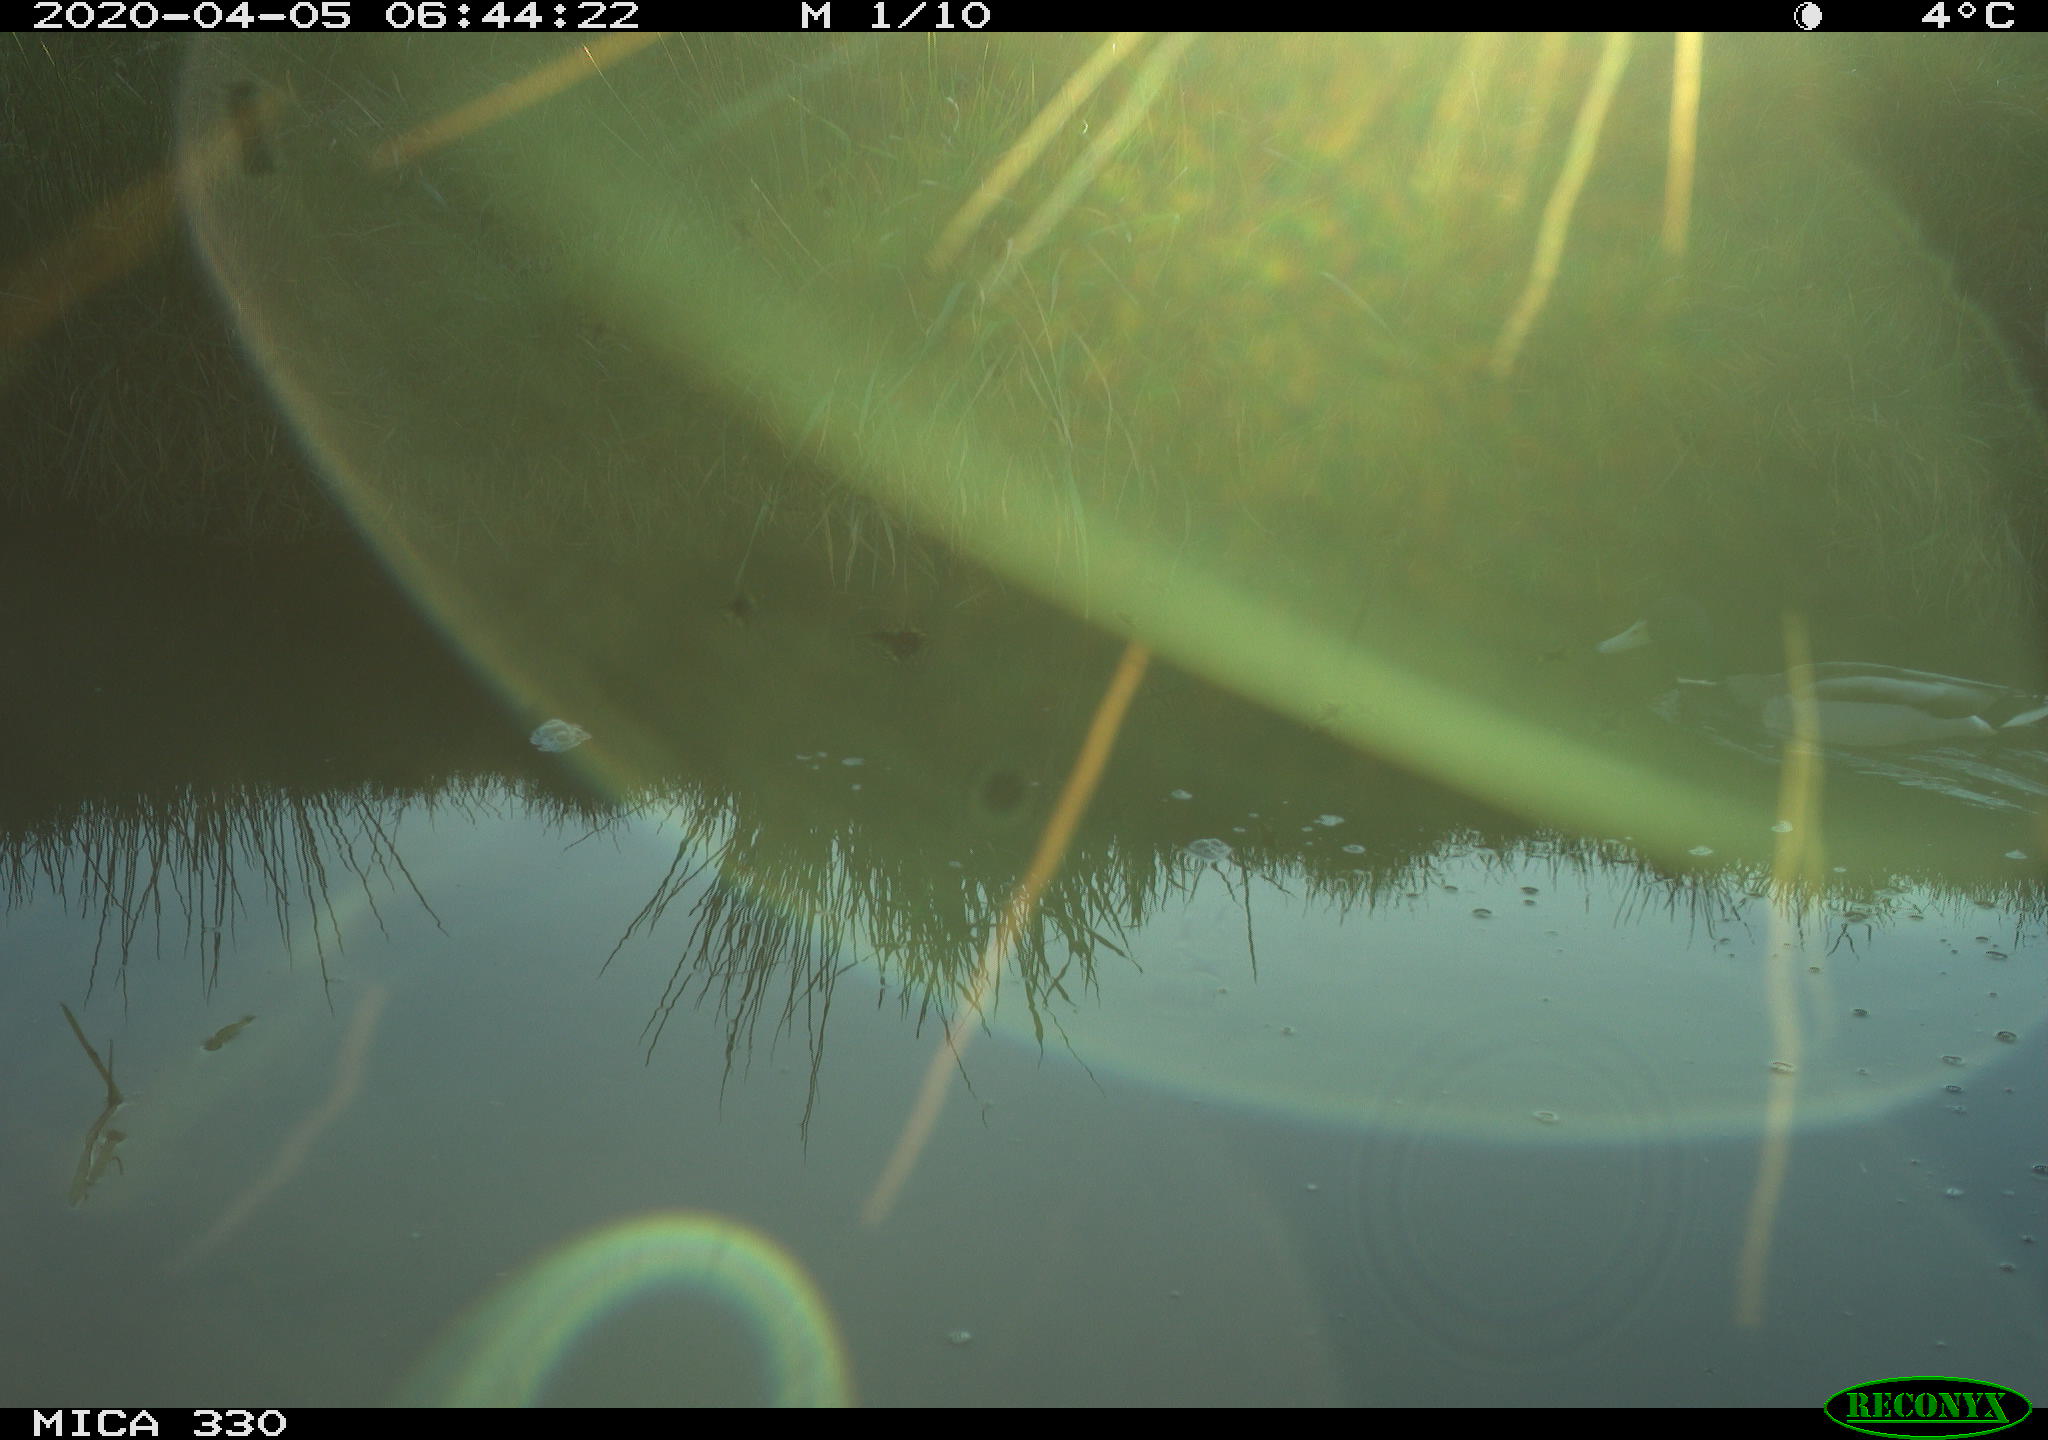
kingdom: Animalia
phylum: Chordata
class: Aves
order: Anseriformes
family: Anatidae
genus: Anas
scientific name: Anas platyrhynchos
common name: Mallard
